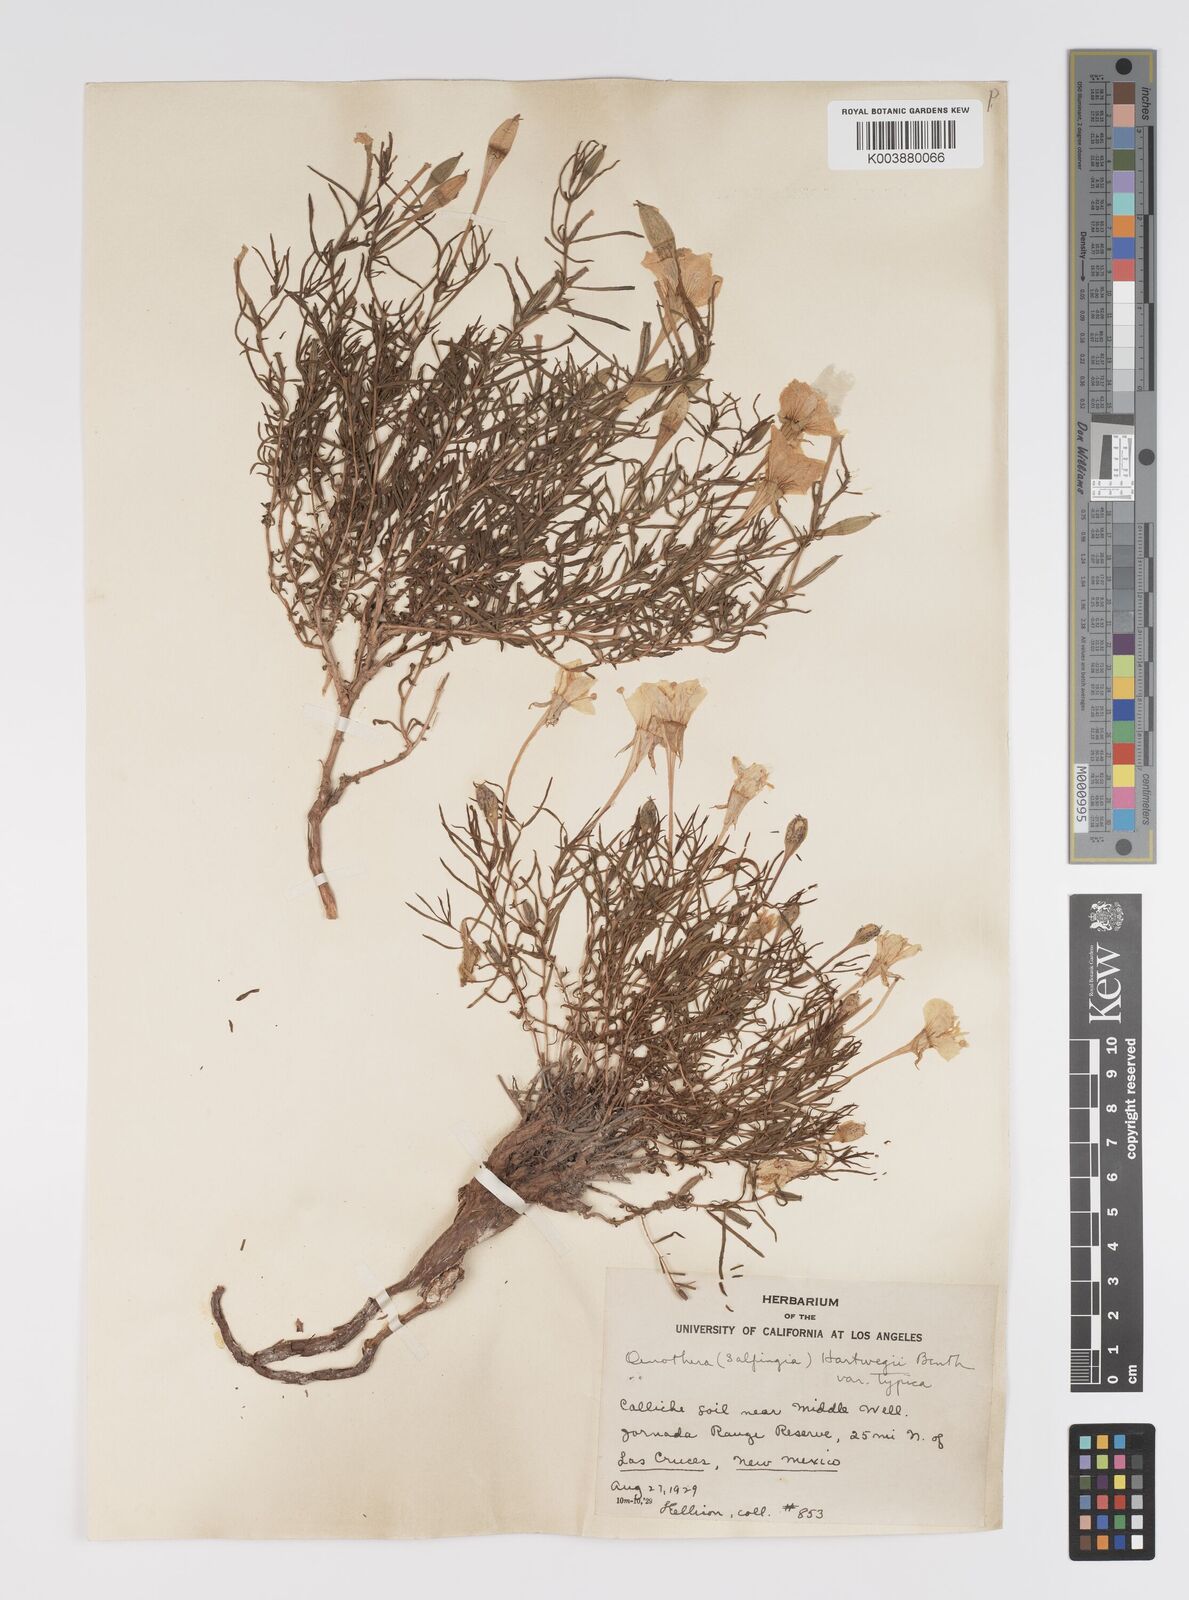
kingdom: Plantae
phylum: Tracheophyta
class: Magnoliopsida
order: Myrtales
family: Onagraceae
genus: Oenothera
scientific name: Oenothera hartwegii
